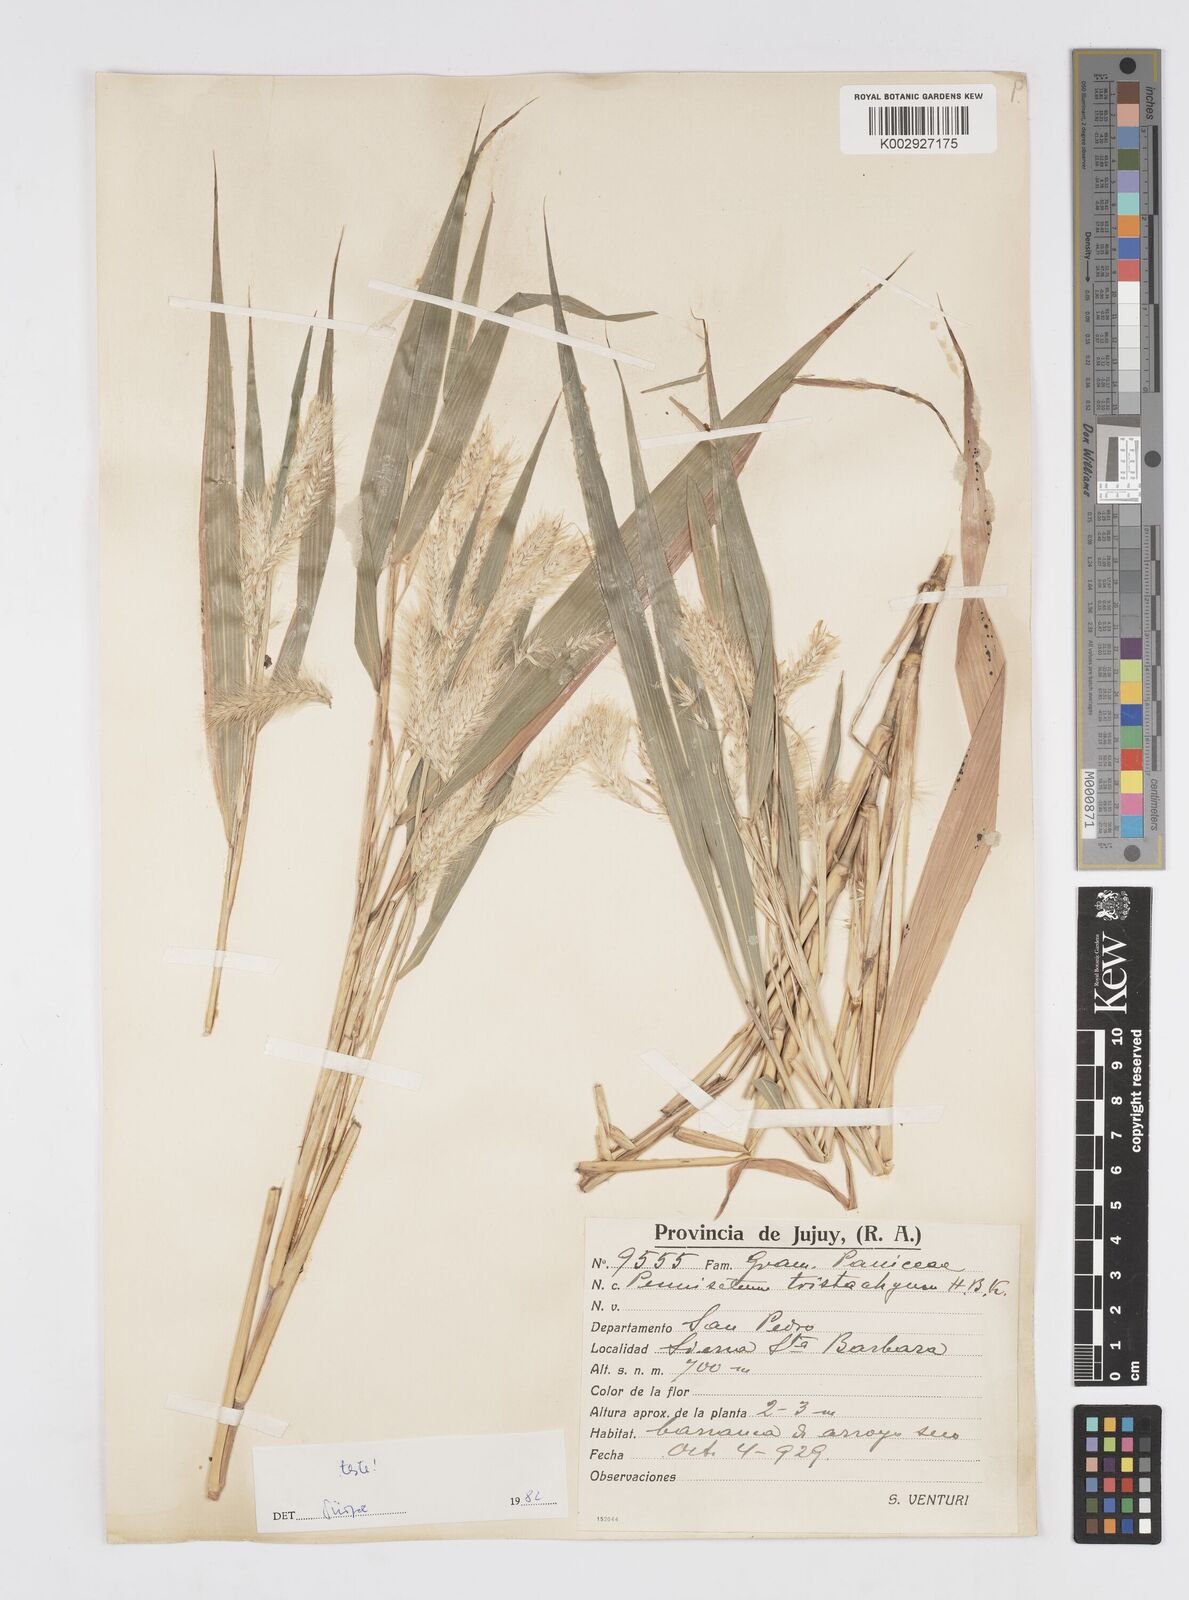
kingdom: Plantae
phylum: Tracheophyta
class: Liliopsida
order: Poales
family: Poaceae
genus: Cenchrus
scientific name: Cenchrus tristachyus
